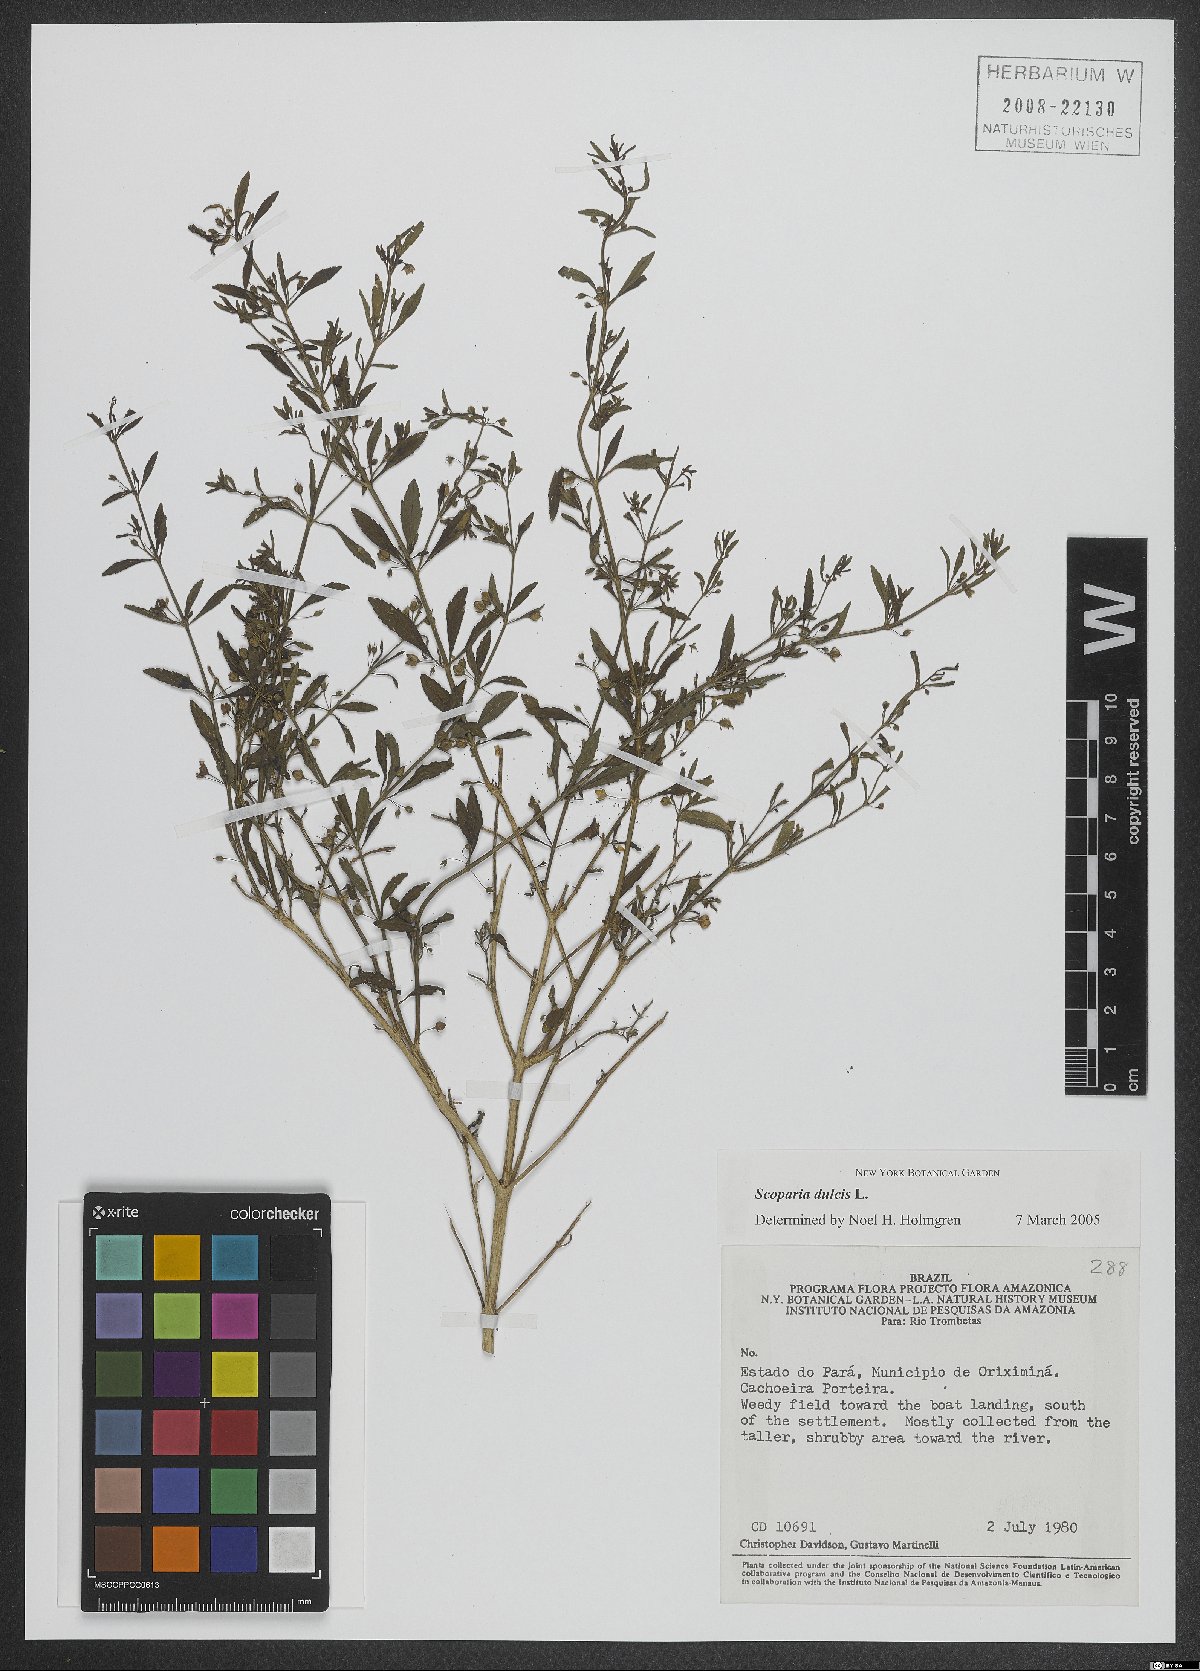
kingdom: Plantae
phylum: Tracheophyta
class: Magnoliopsida
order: Lamiales
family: Plantaginaceae
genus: Scoparia
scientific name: Scoparia dulcis
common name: Scoparia-weed
